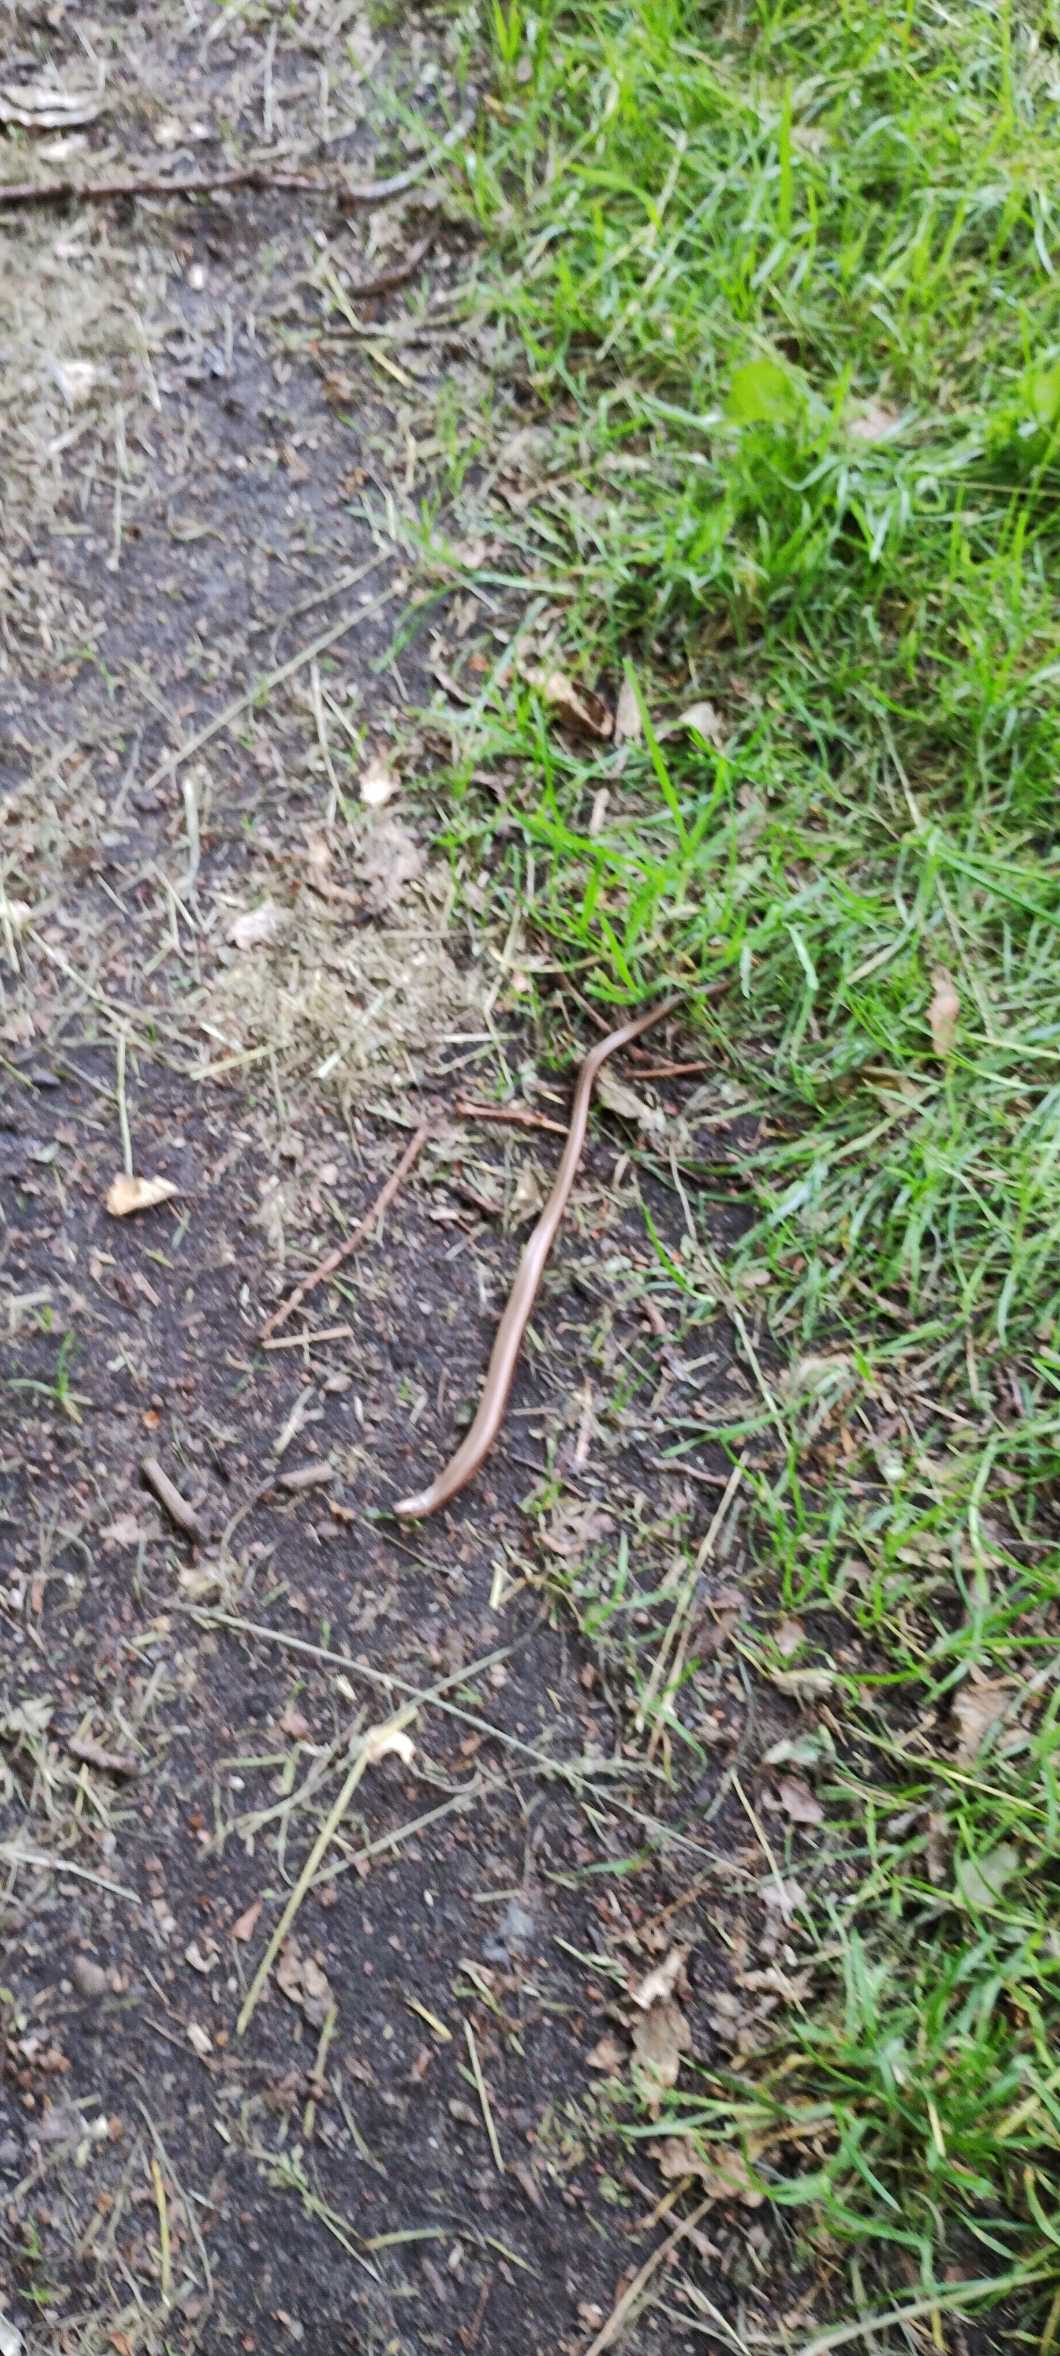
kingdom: Animalia
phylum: Chordata
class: Squamata
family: Anguidae
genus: Anguis
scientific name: Anguis fragilis
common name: Stålorm
